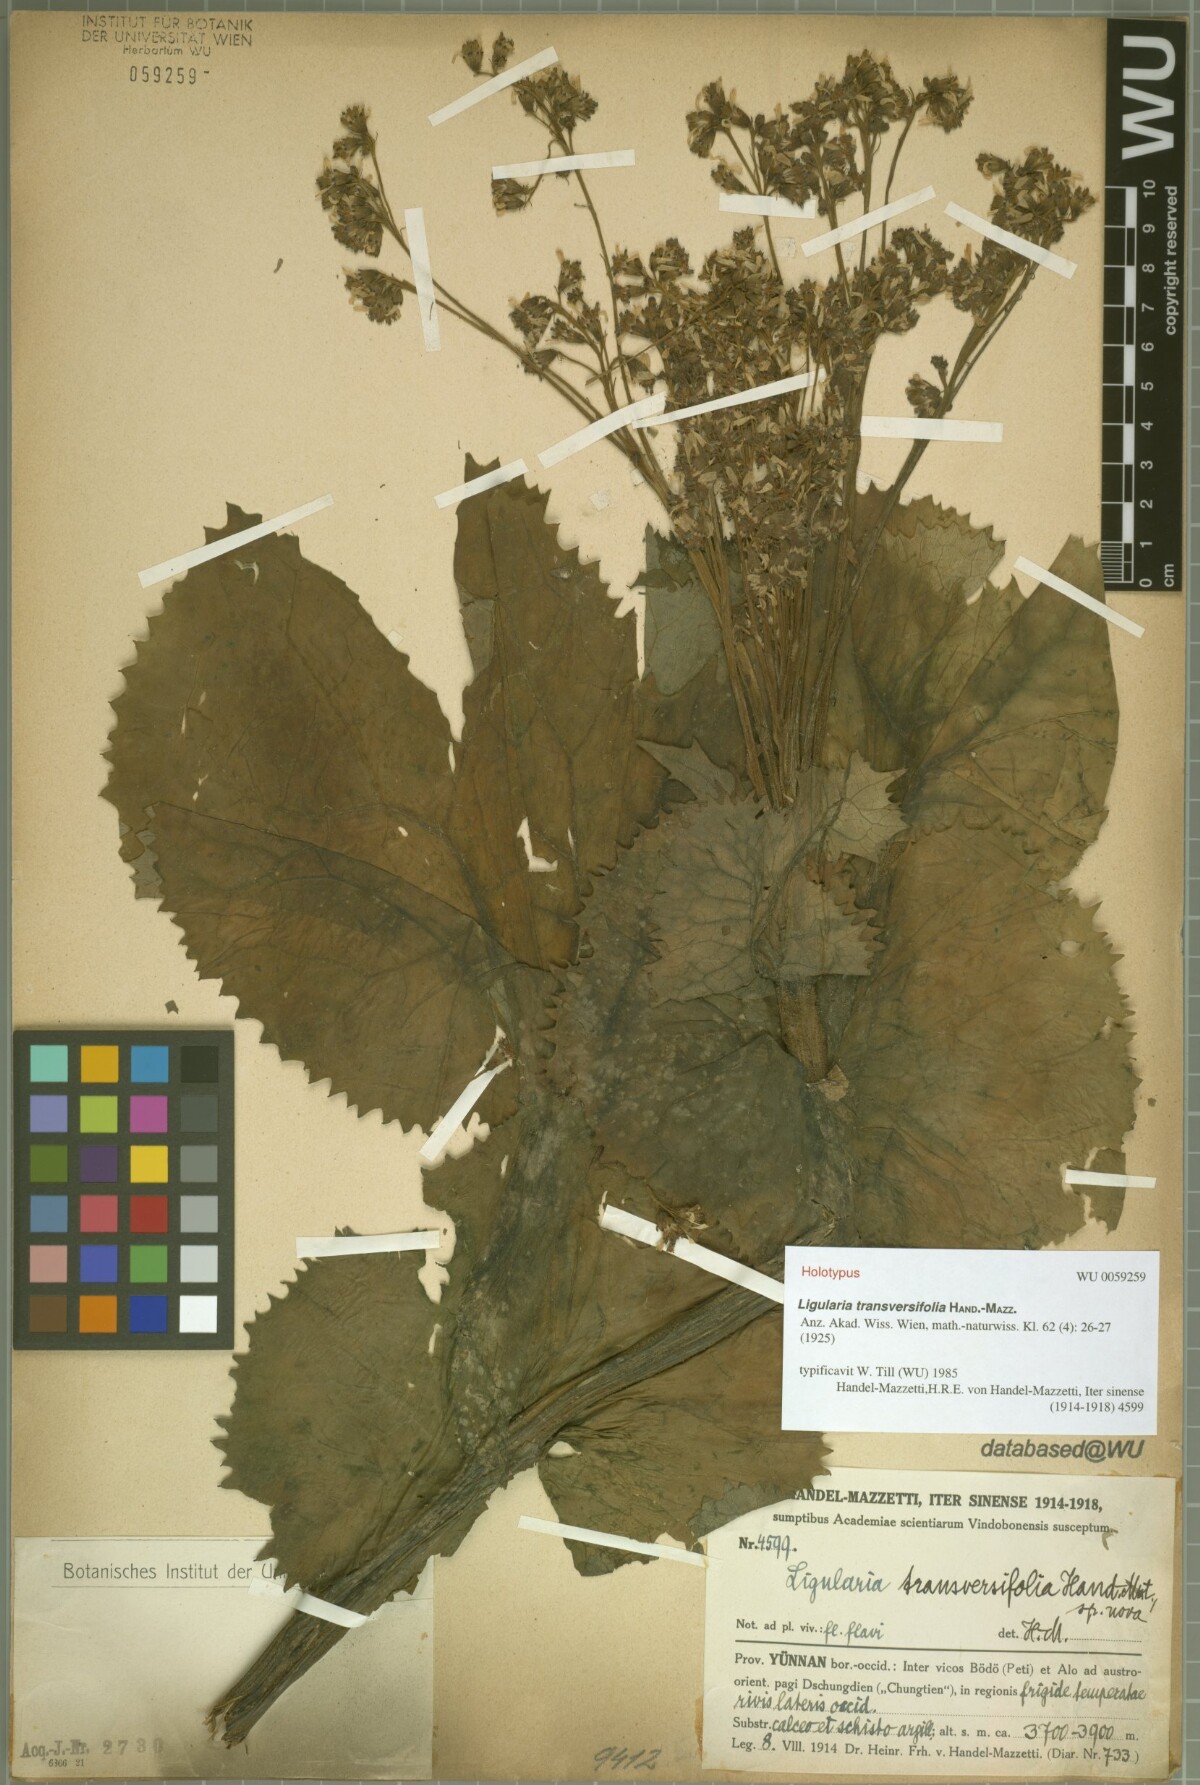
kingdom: Plantae
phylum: Tracheophyta
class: Magnoliopsida
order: Asterales
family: Asteraceae
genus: Ligularia
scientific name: Ligularia transversifolia
